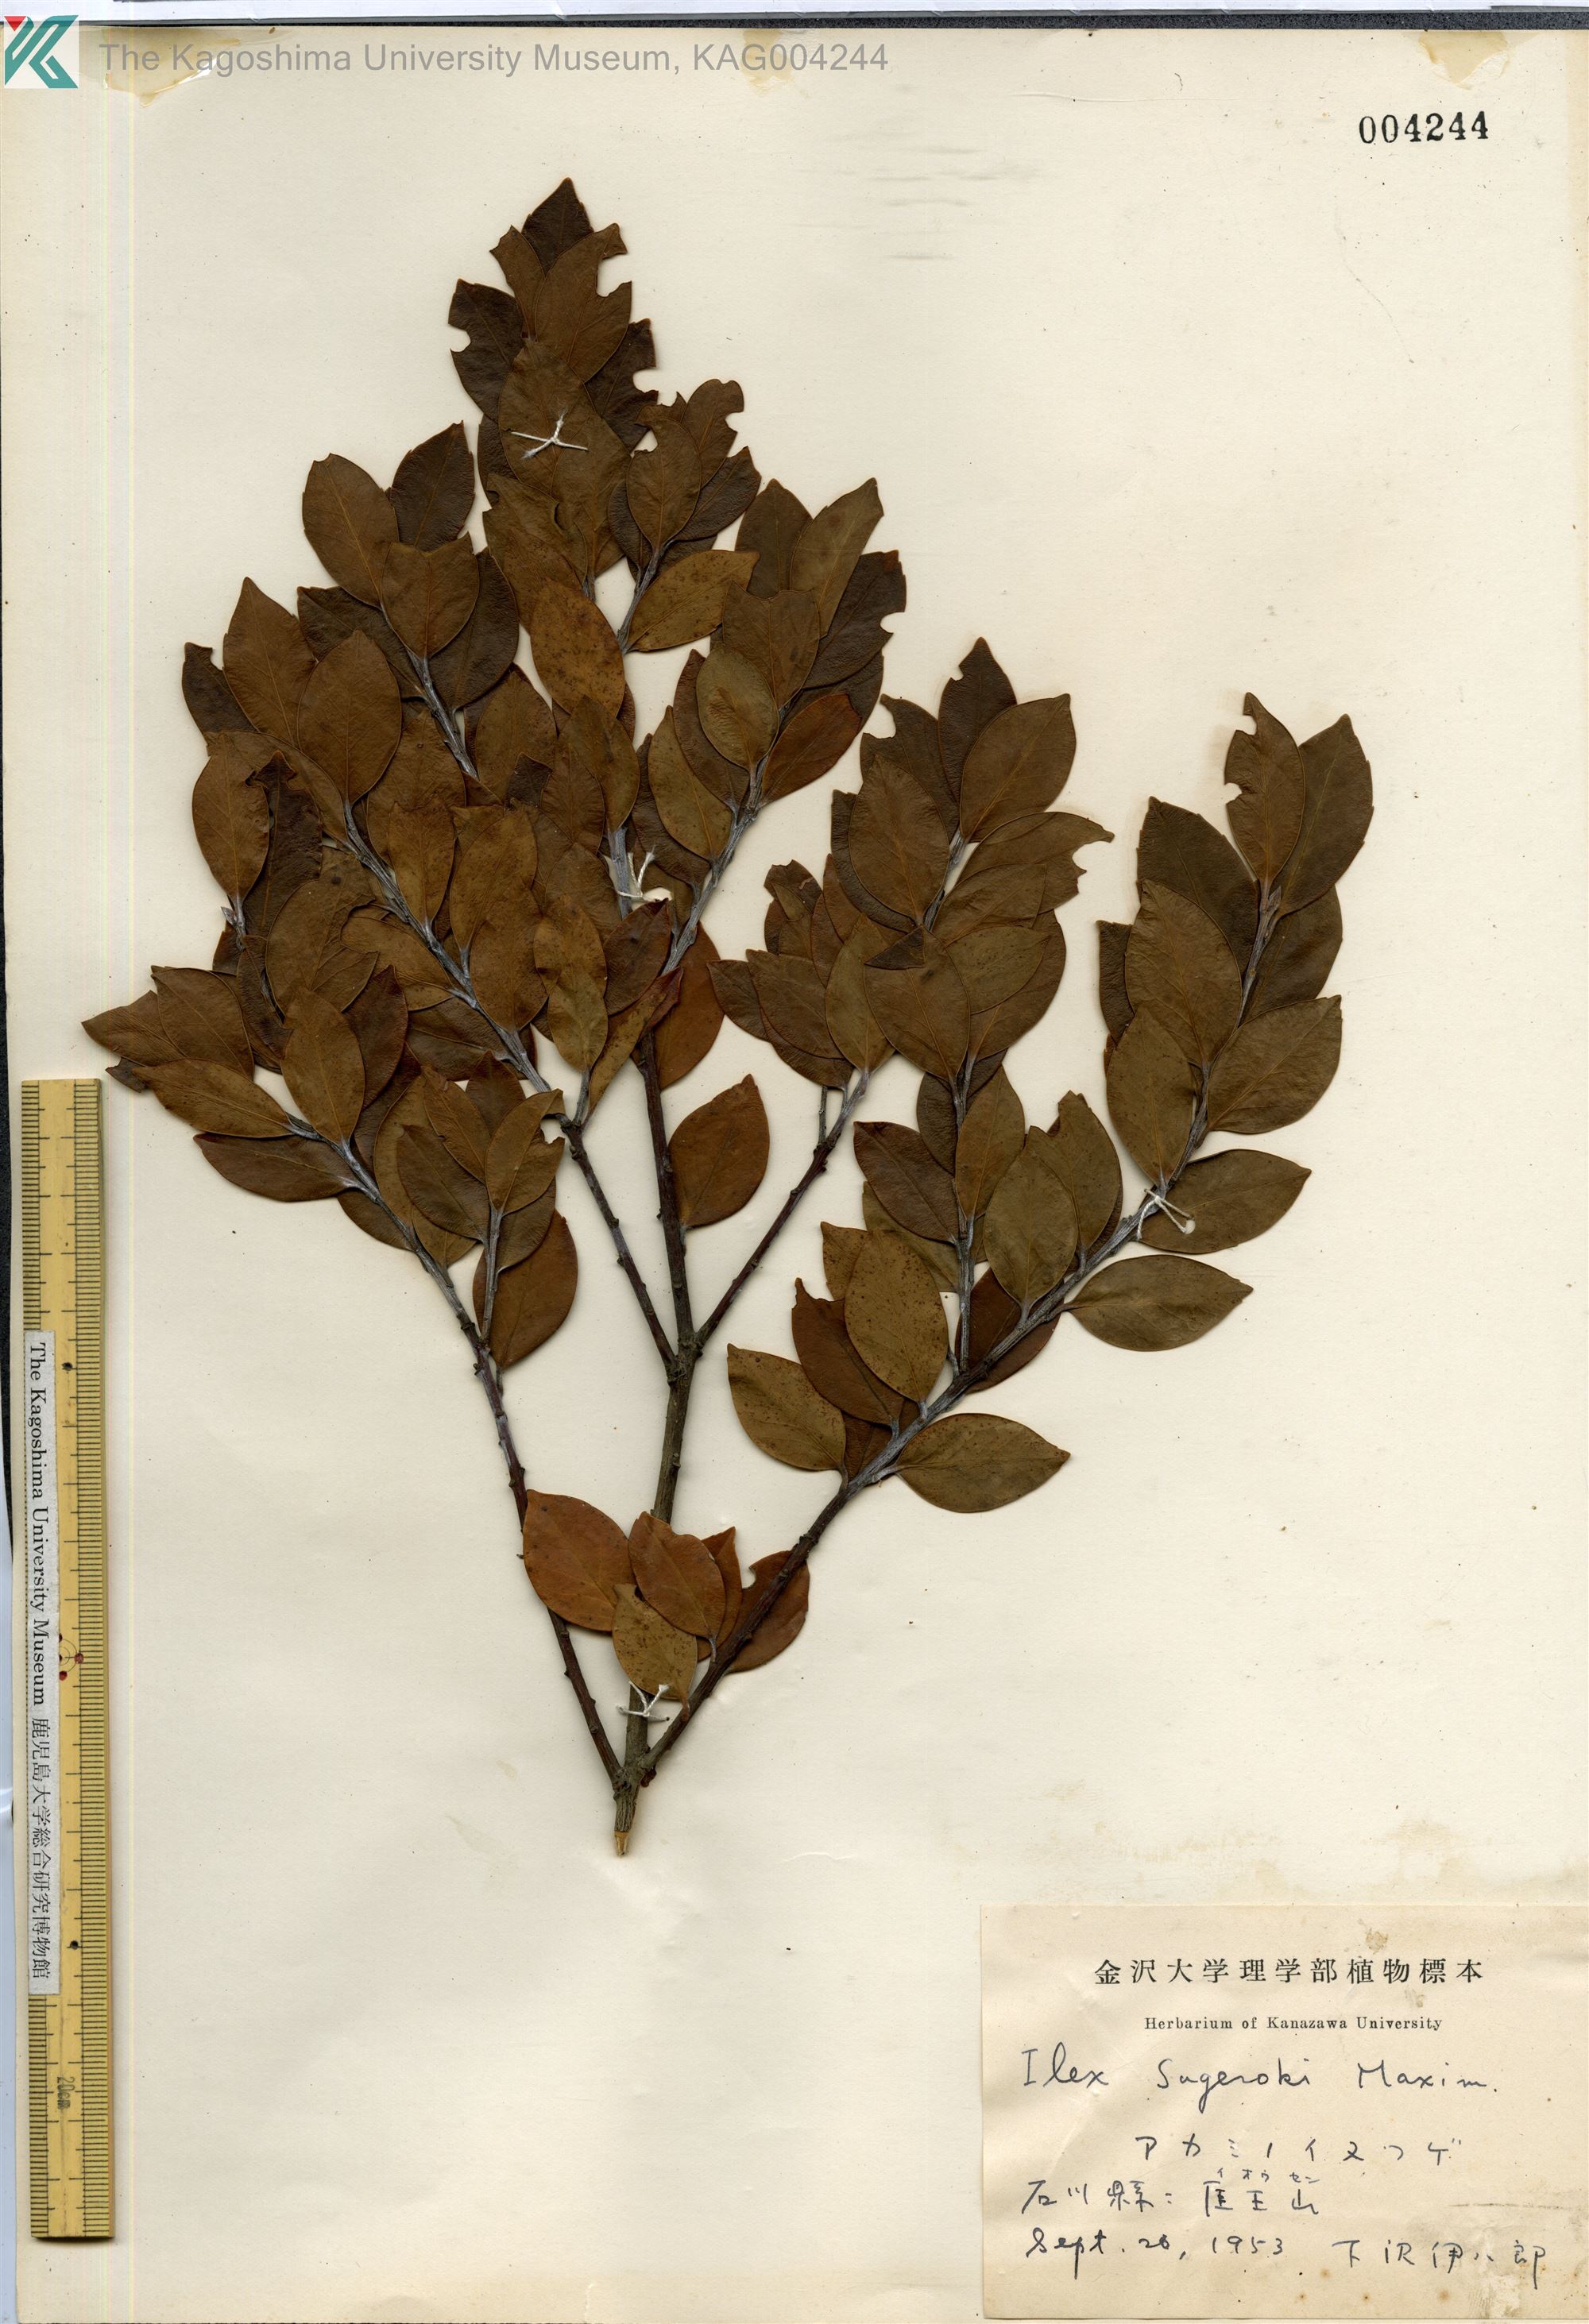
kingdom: Plantae
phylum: Tracheophyta
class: Magnoliopsida
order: Aquifoliales
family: Aquifoliaceae
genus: Ilex
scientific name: Ilex sugerokii
